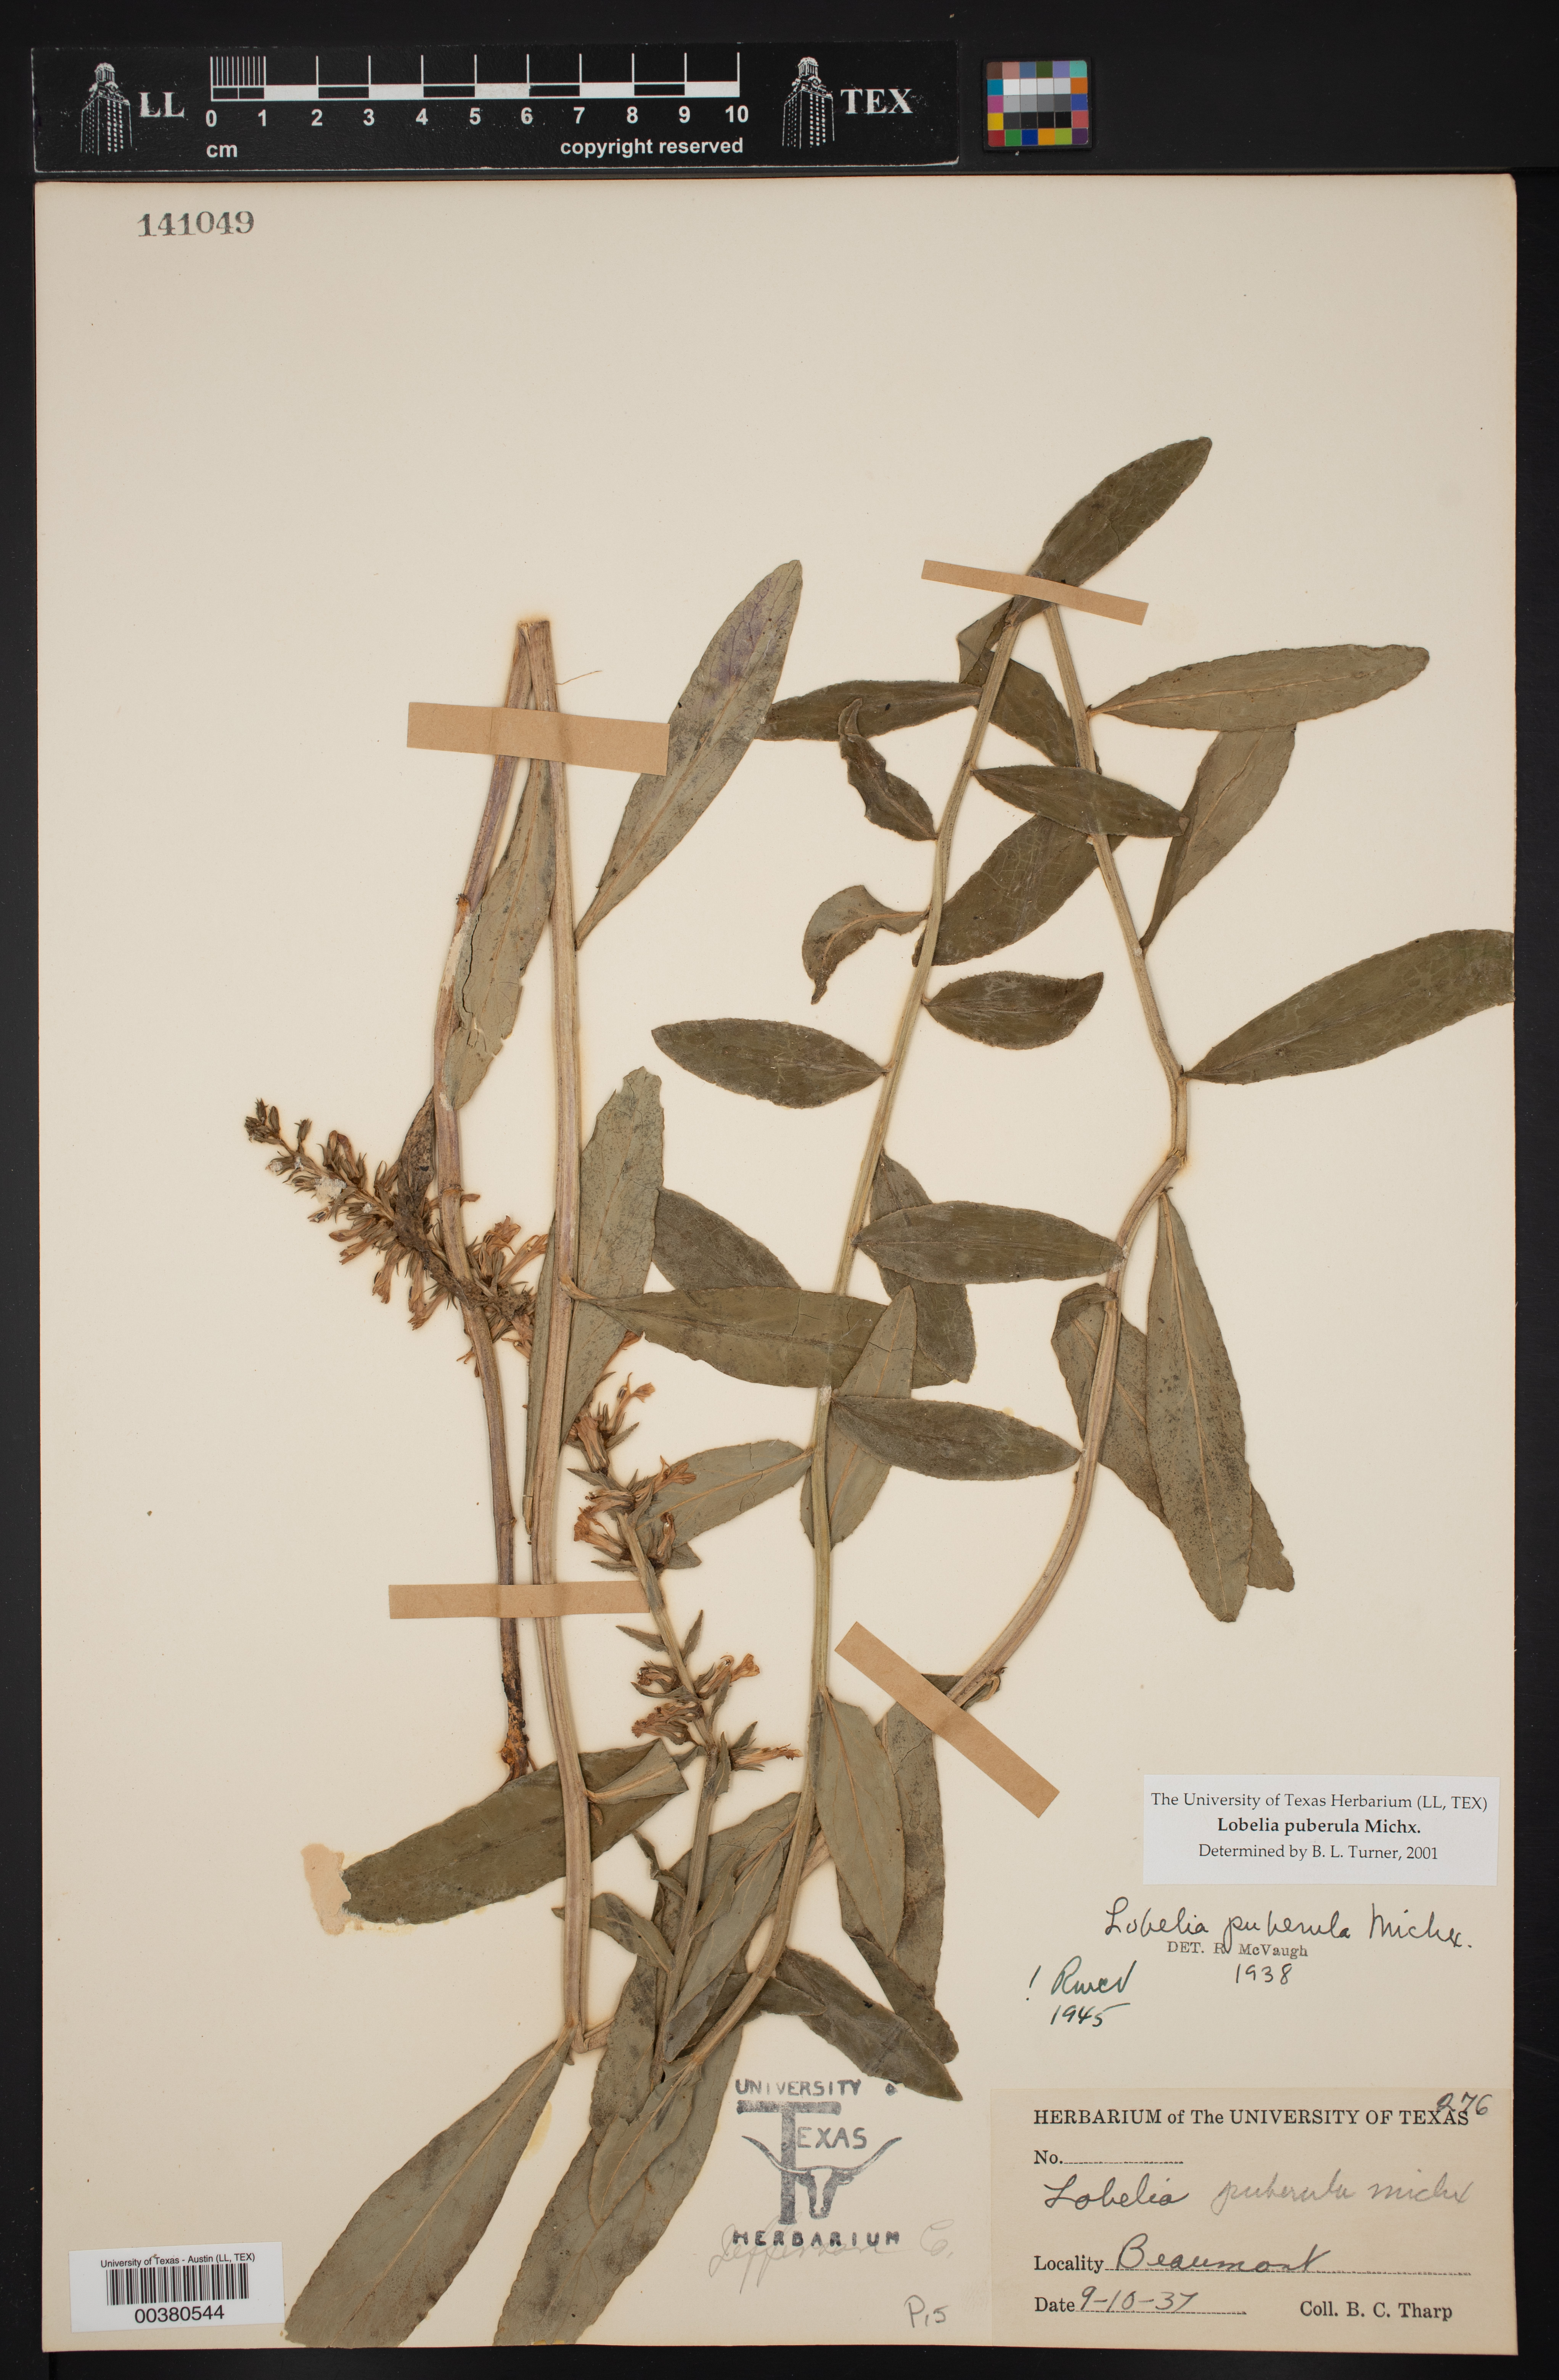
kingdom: Plantae
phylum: Tracheophyta
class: Magnoliopsida
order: Asterales
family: Campanulaceae
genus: Lobelia
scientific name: Lobelia puberula
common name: Purple dewdrop
